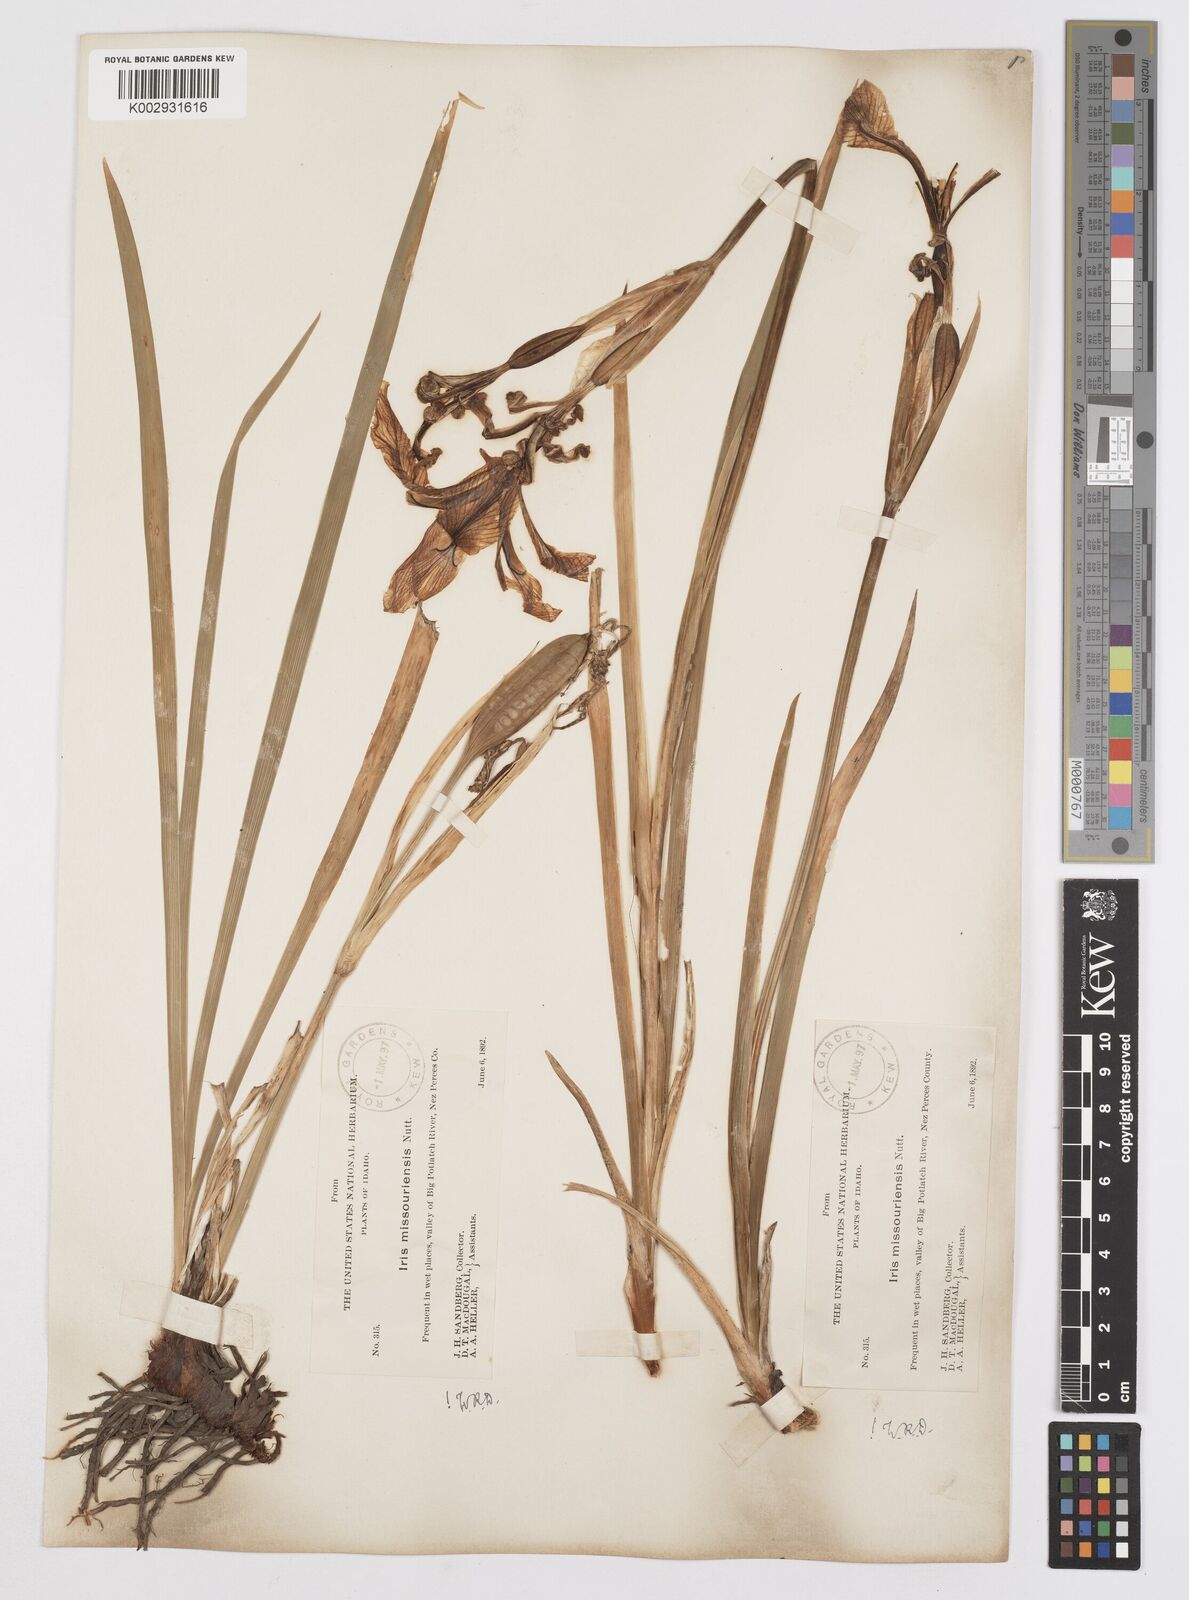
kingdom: Plantae
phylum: Tracheophyta
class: Liliopsida
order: Asparagales
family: Iridaceae
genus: Iris
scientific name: Iris missouriensis
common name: Rocky mountain iris
